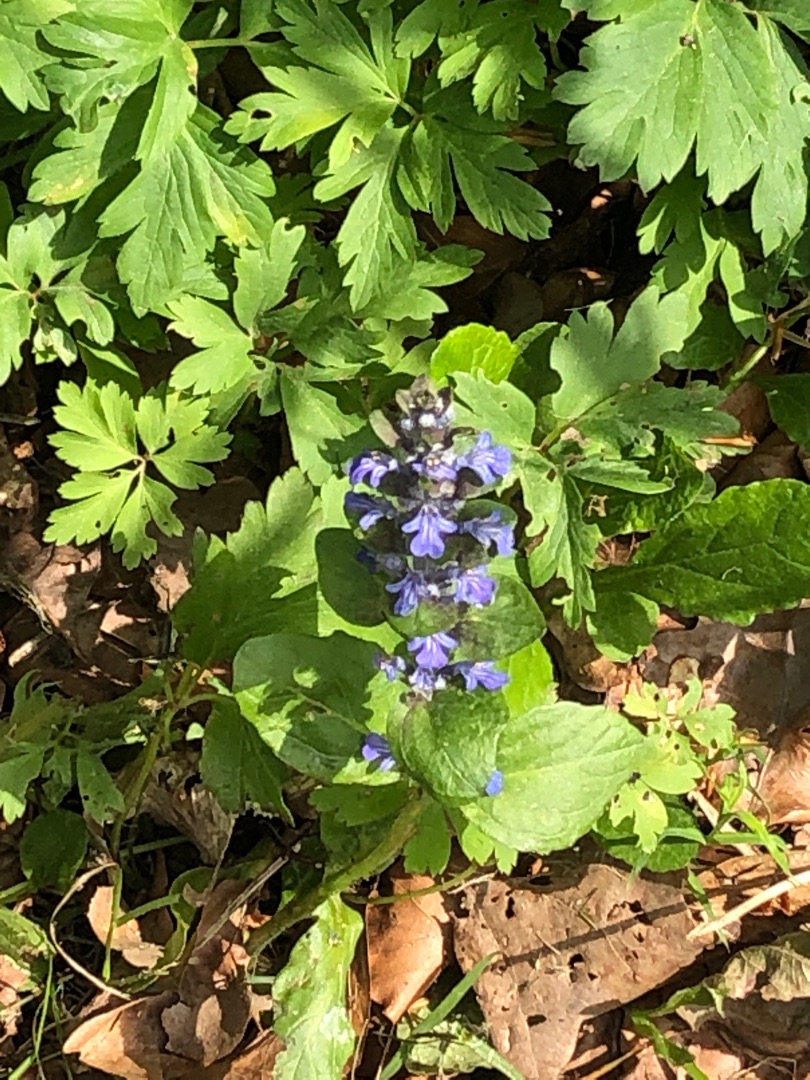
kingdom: Plantae
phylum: Tracheophyta
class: Magnoliopsida
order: Lamiales
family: Lamiaceae
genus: Ajuga
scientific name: Ajuga reptans
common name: Krybende læbeløs
